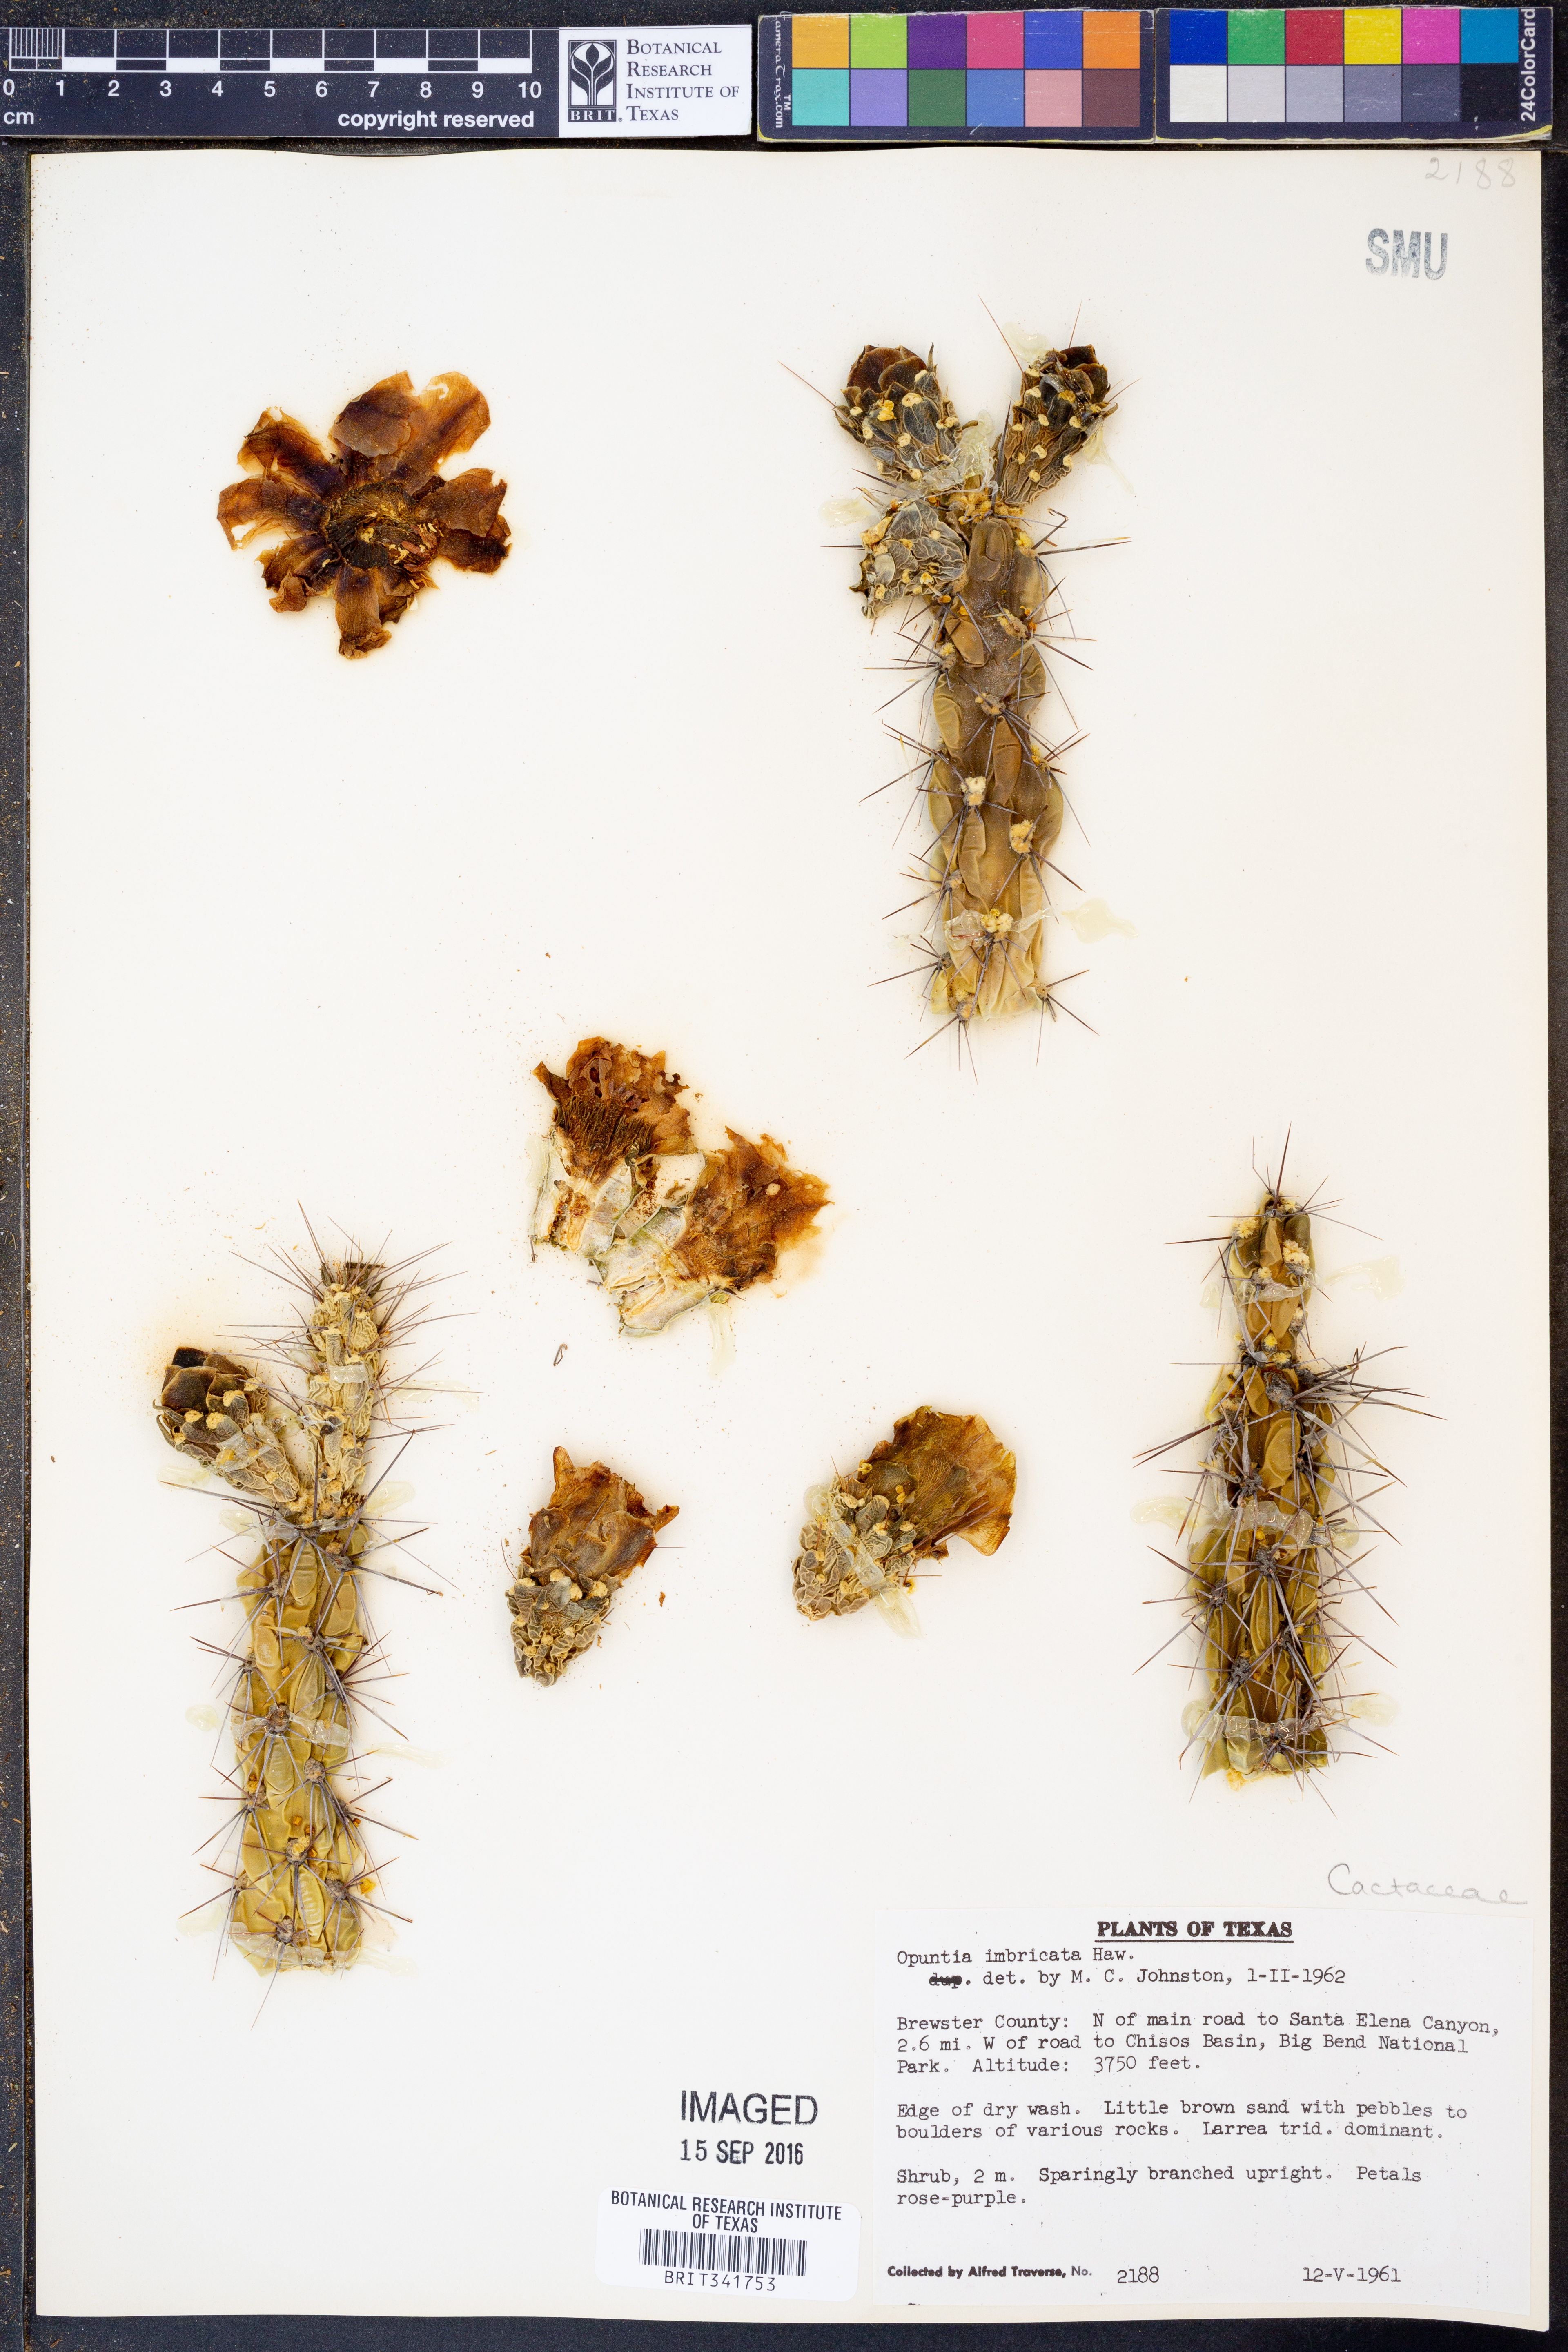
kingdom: Plantae
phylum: Tracheophyta
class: Magnoliopsida
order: Caryophyllales
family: Cactaceae
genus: Cylindropuntia
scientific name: Cylindropuntia imbricata
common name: Candelabrum cactus
